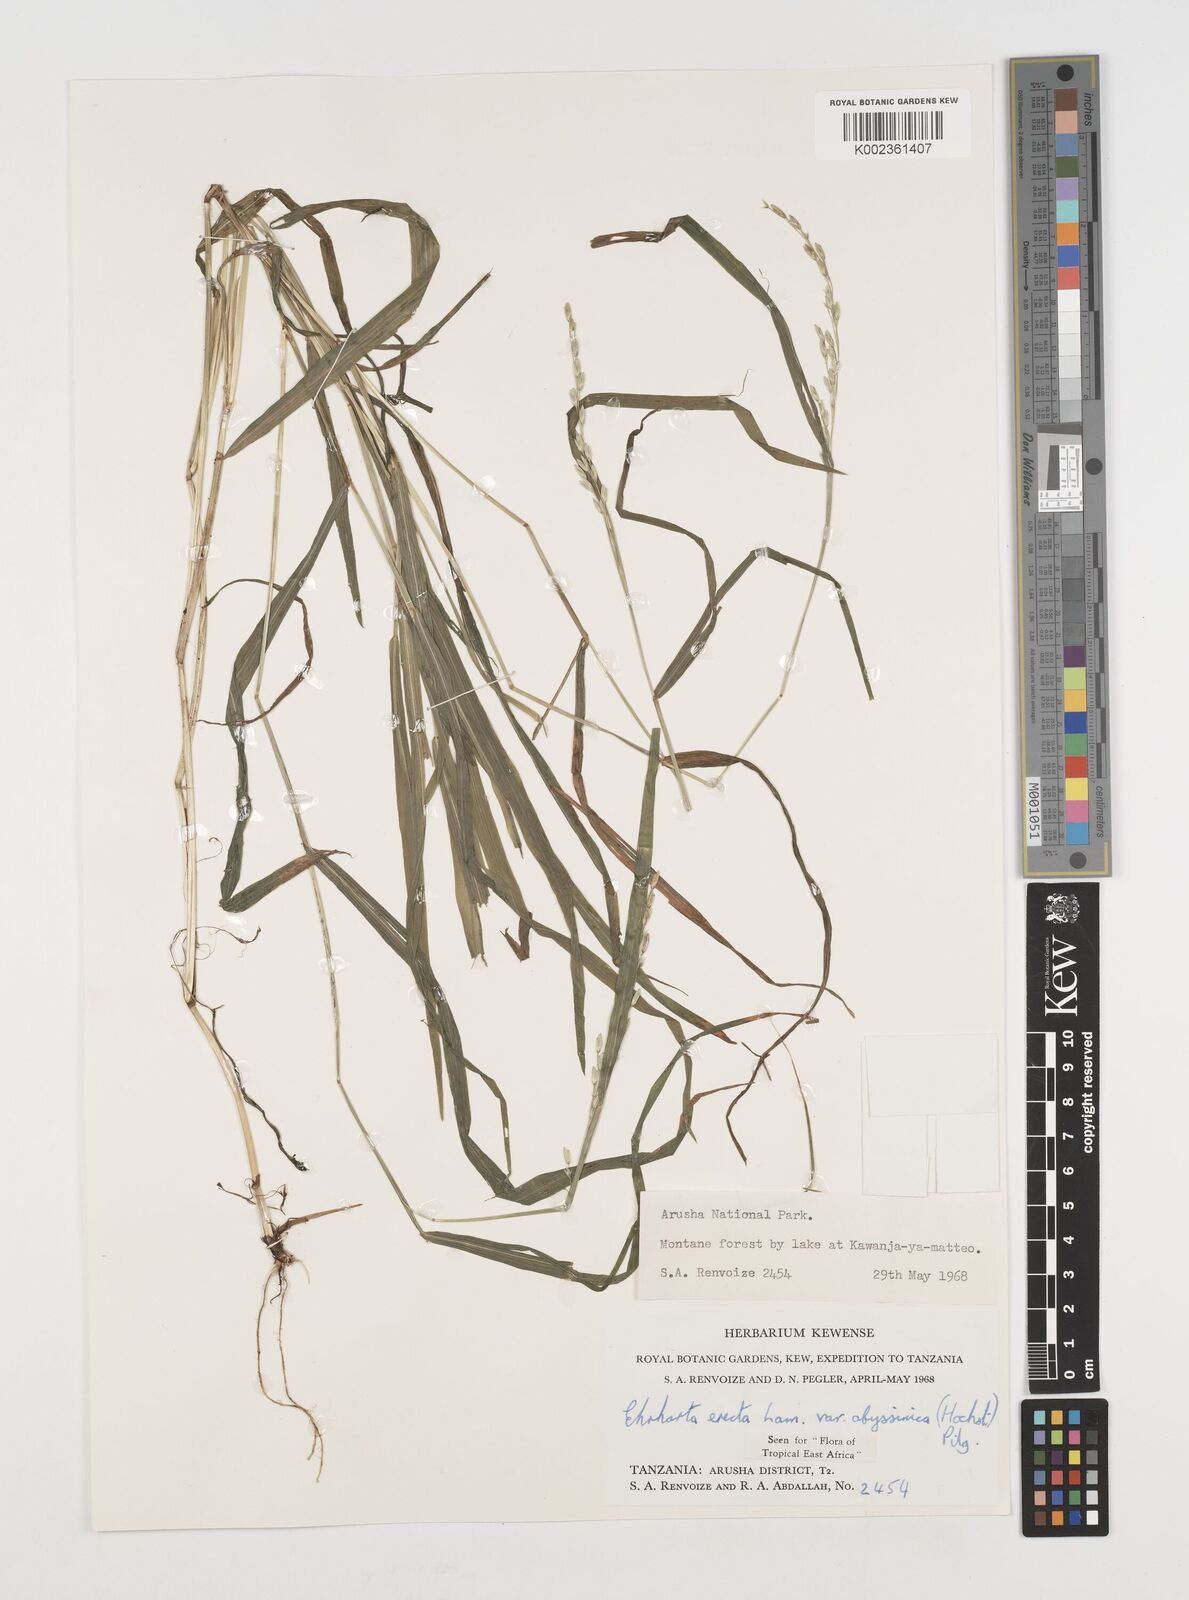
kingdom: Plantae
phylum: Tracheophyta
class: Liliopsida
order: Poales
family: Poaceae
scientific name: Poaceae
